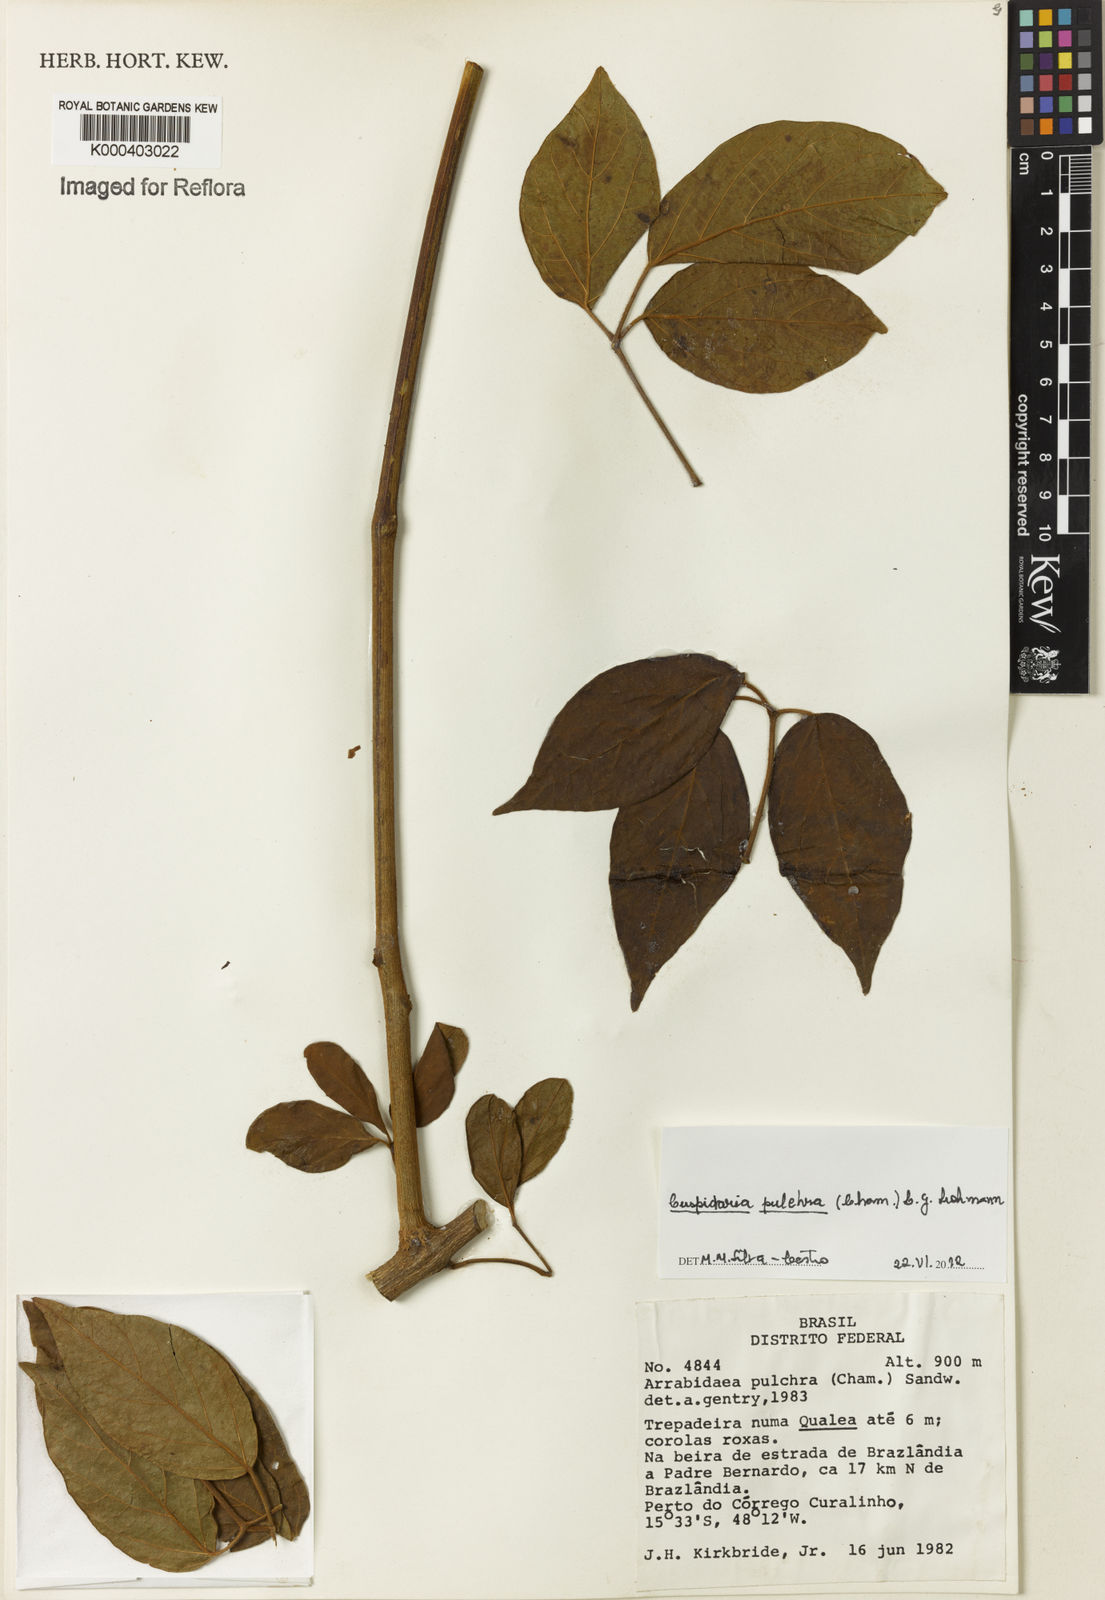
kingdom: Plantae
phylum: Tracheophyta
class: Magnoliopsida
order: Lamiales
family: Bignoniaceae
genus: Cuspidaria
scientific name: Cuspidaria pulchra
